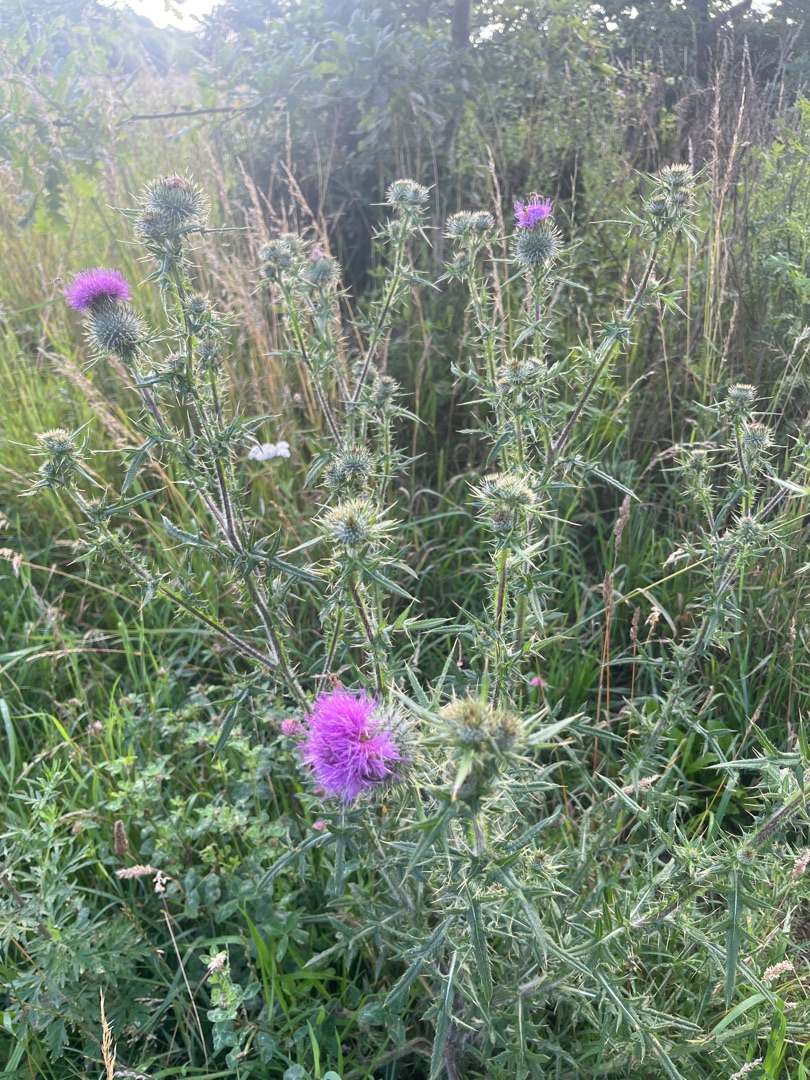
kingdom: Plantae
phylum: Tracheophyta
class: Magnoliopsida
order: Asterales
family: Asteraceae
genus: Cirsium
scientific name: Cirsium vulgare
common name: Horse-tidsel
